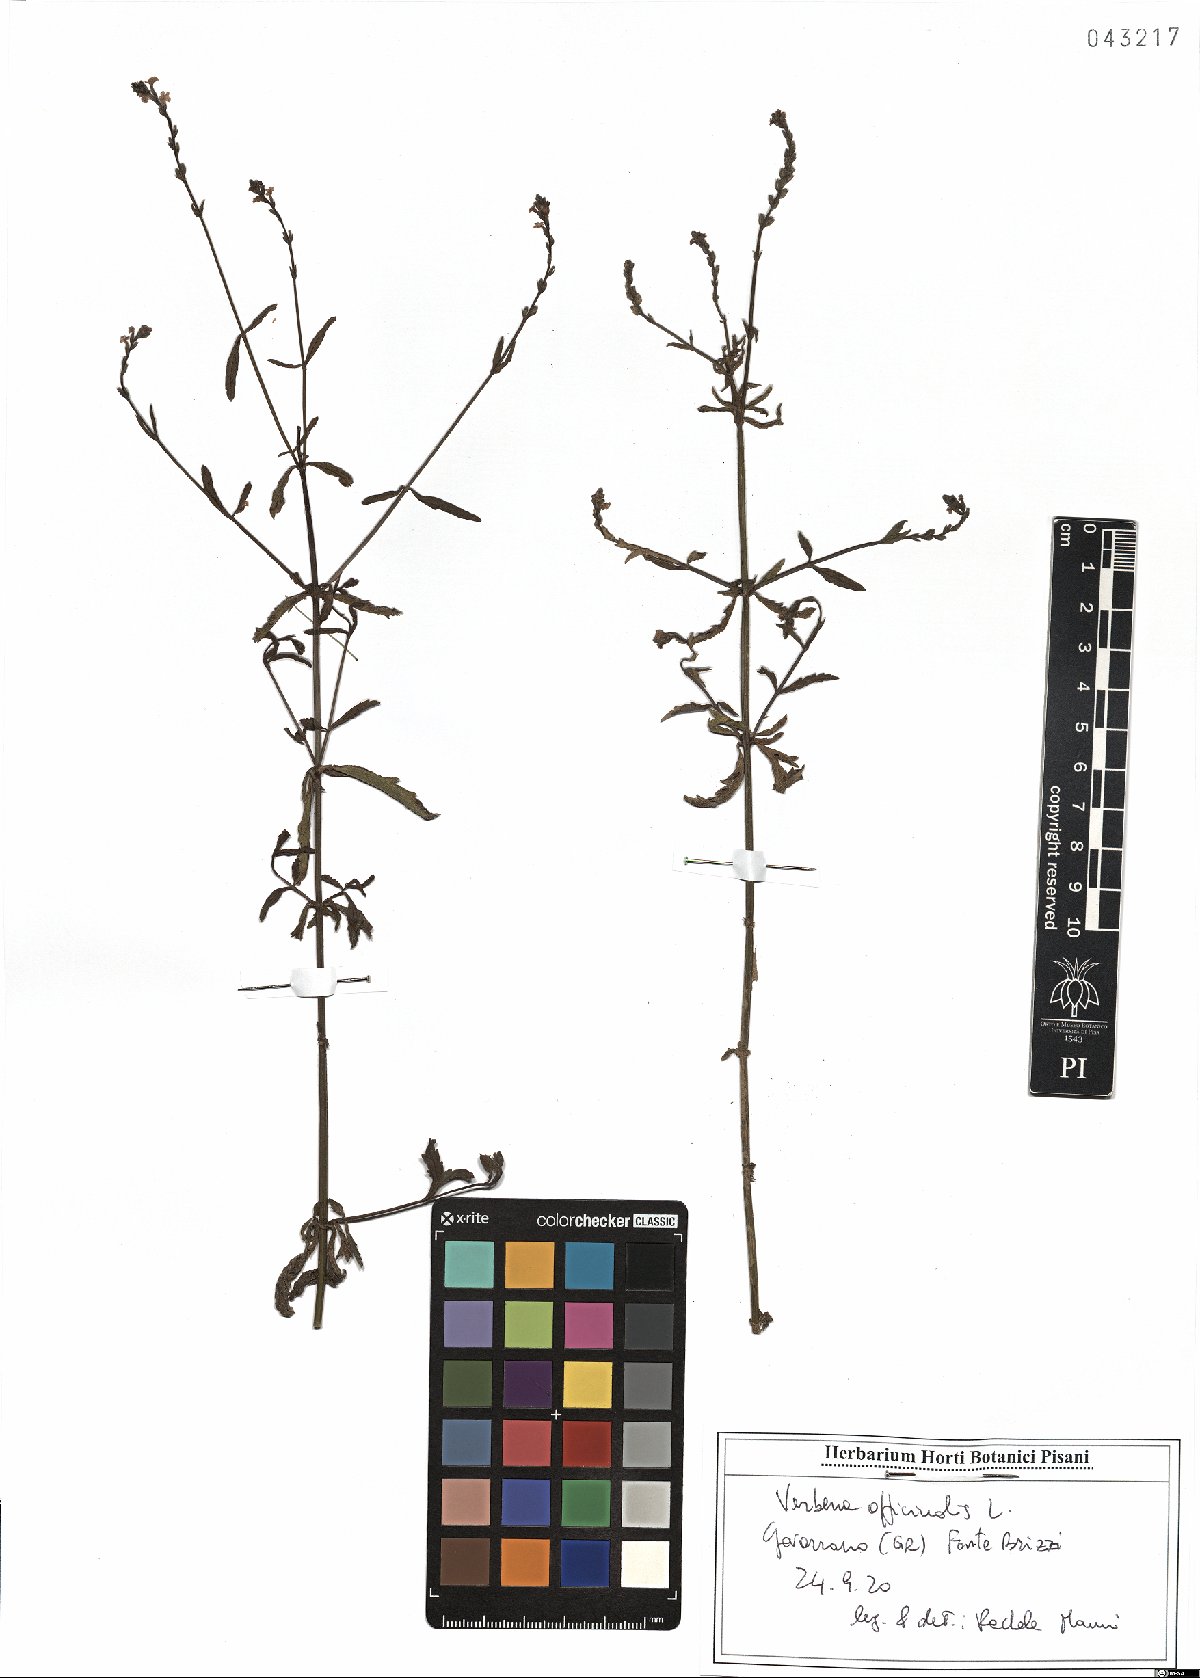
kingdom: Plantae
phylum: Tracheophyta
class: Magnoliopsida
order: Lamiales
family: Verbenaceae
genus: Verbena
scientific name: Verbena officinalis
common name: Vervain
